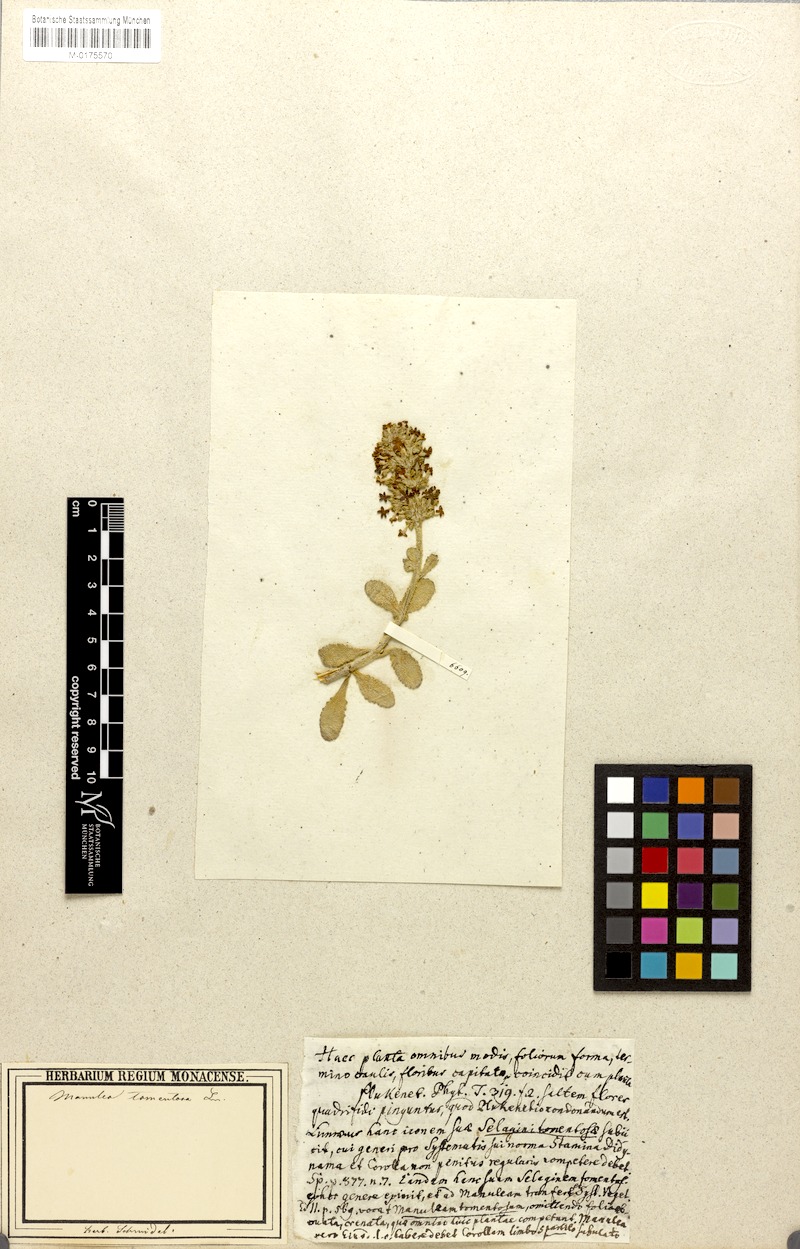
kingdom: Plantae
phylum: Tracheophyta
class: Magnoliopsida
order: Lamiales
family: Scrophulariaceae
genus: Manulea
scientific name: Manulea tomentosa
